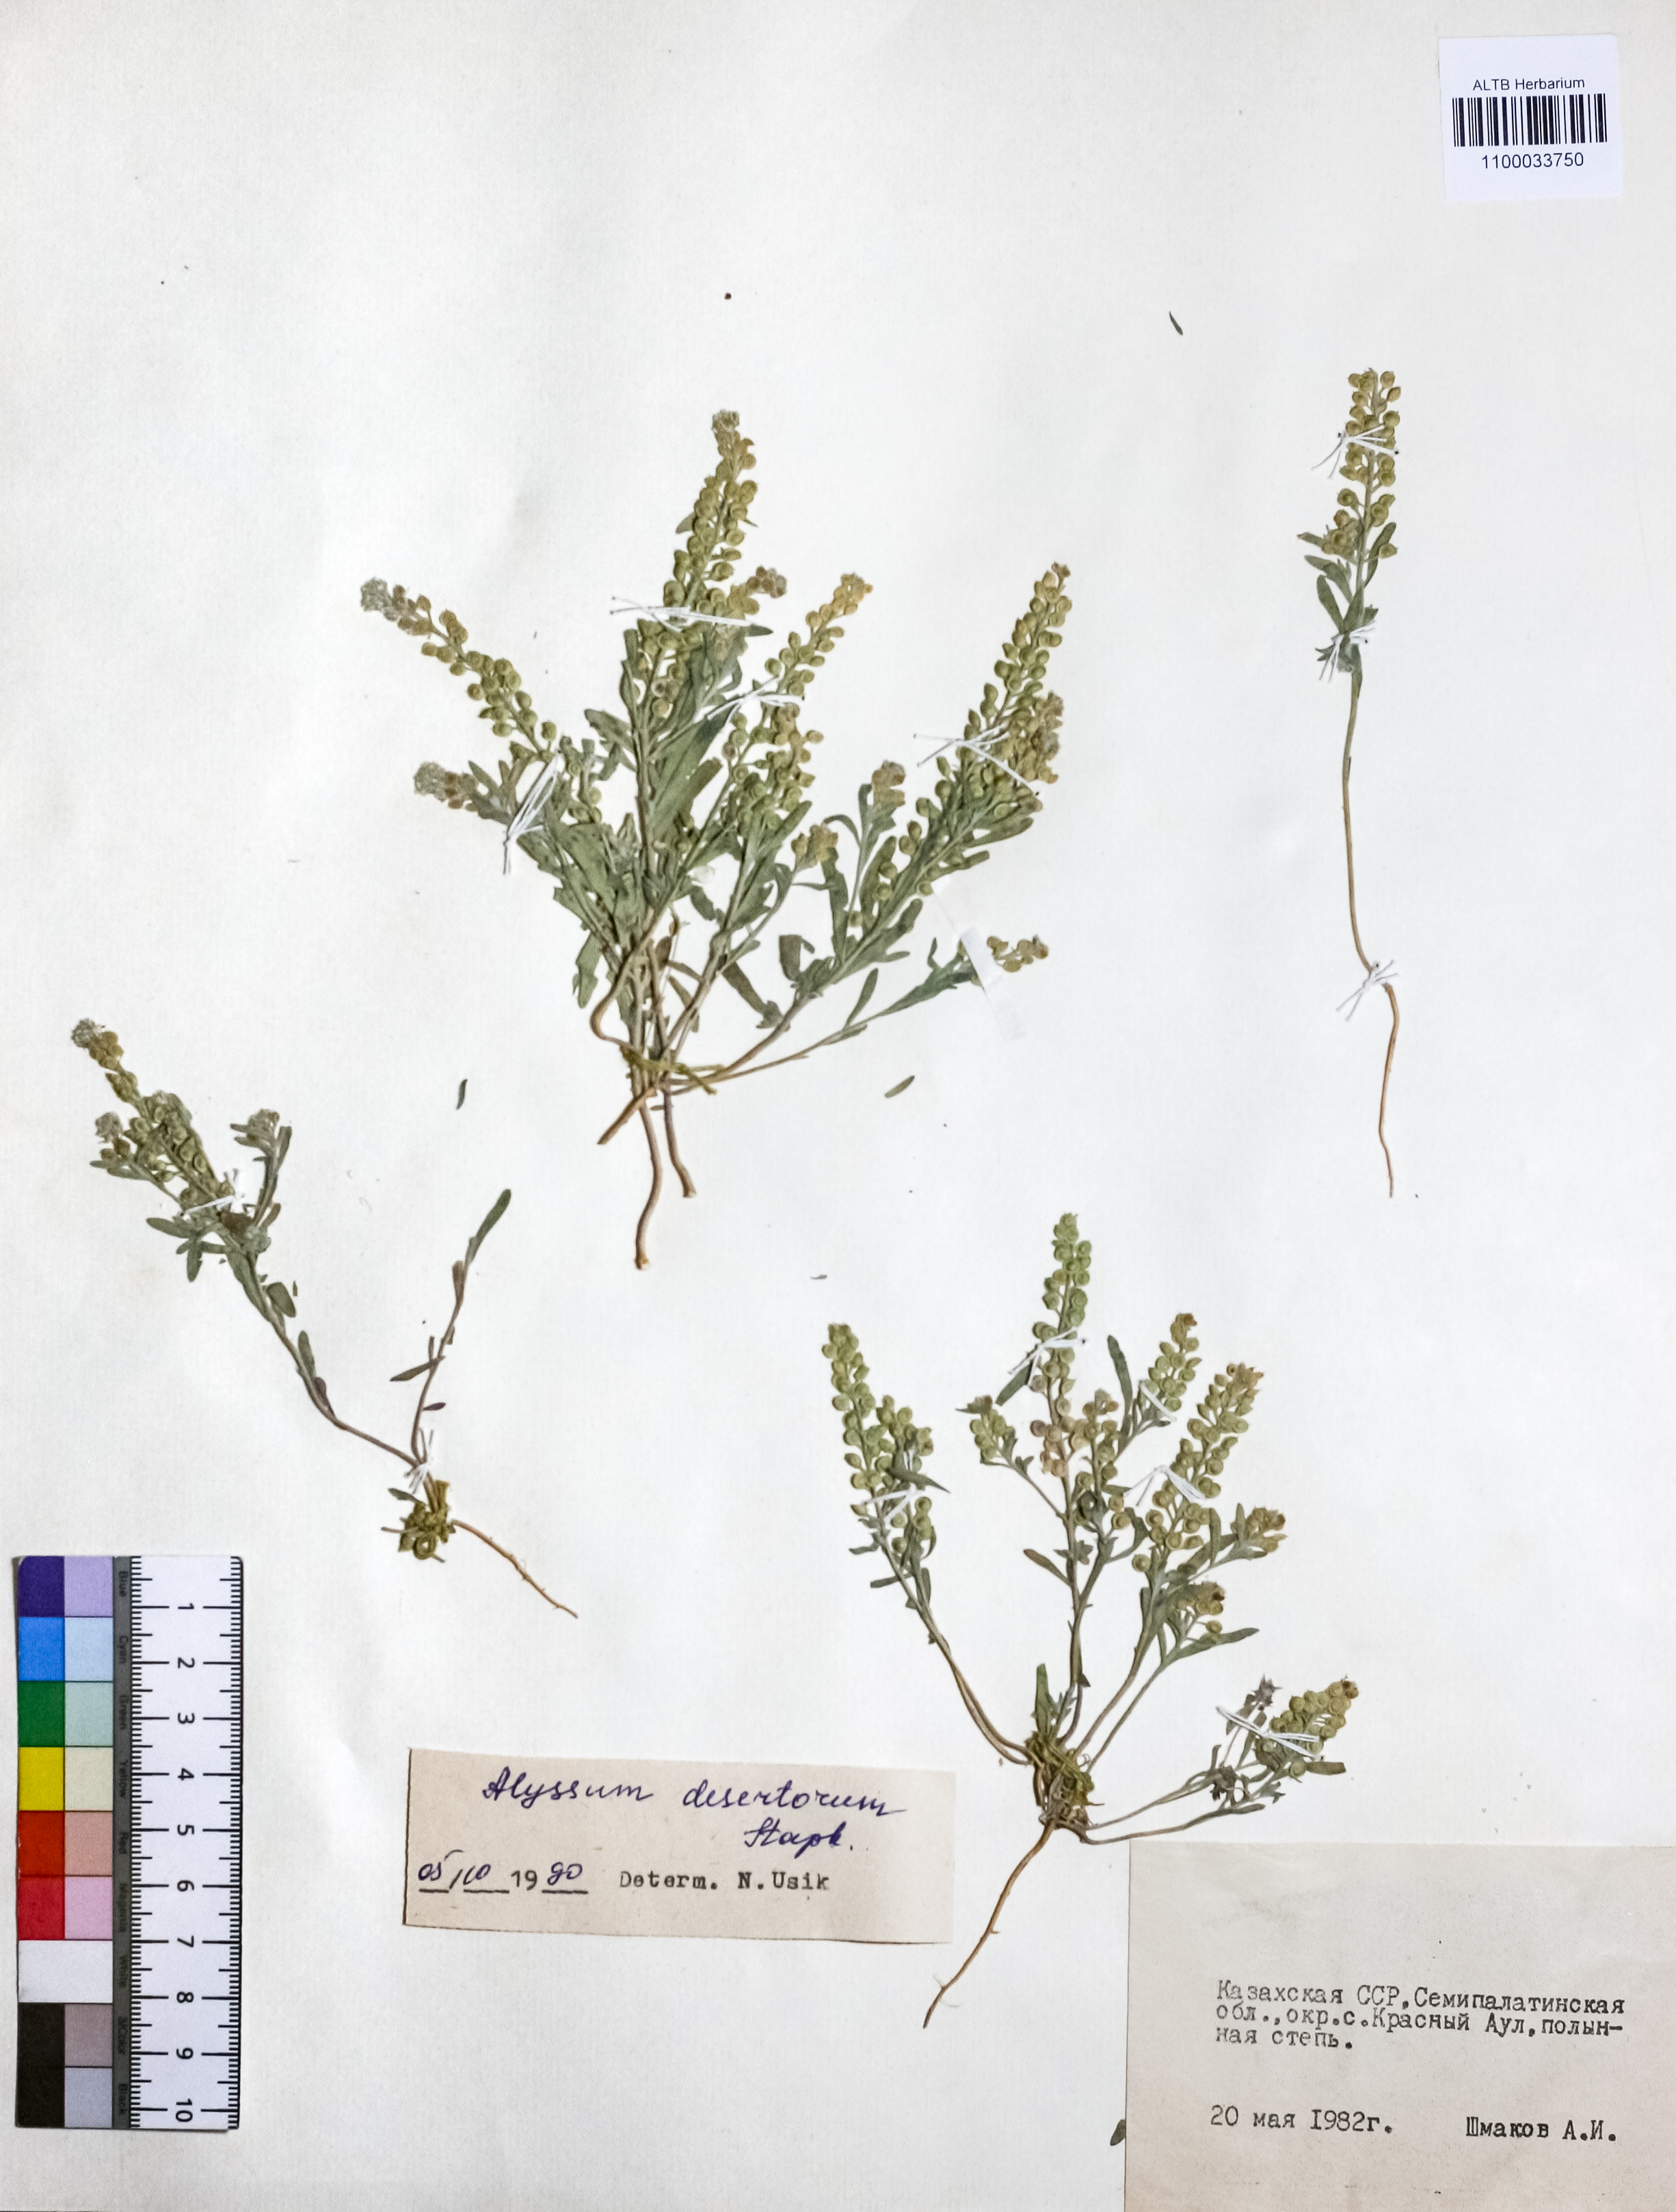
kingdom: Plantae
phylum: Tracheophyta
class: Magnoliopsida
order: Brassicales
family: Brassicaceae
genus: Alyssum
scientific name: Alyssum turkestanicum
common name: Desert alyssum
